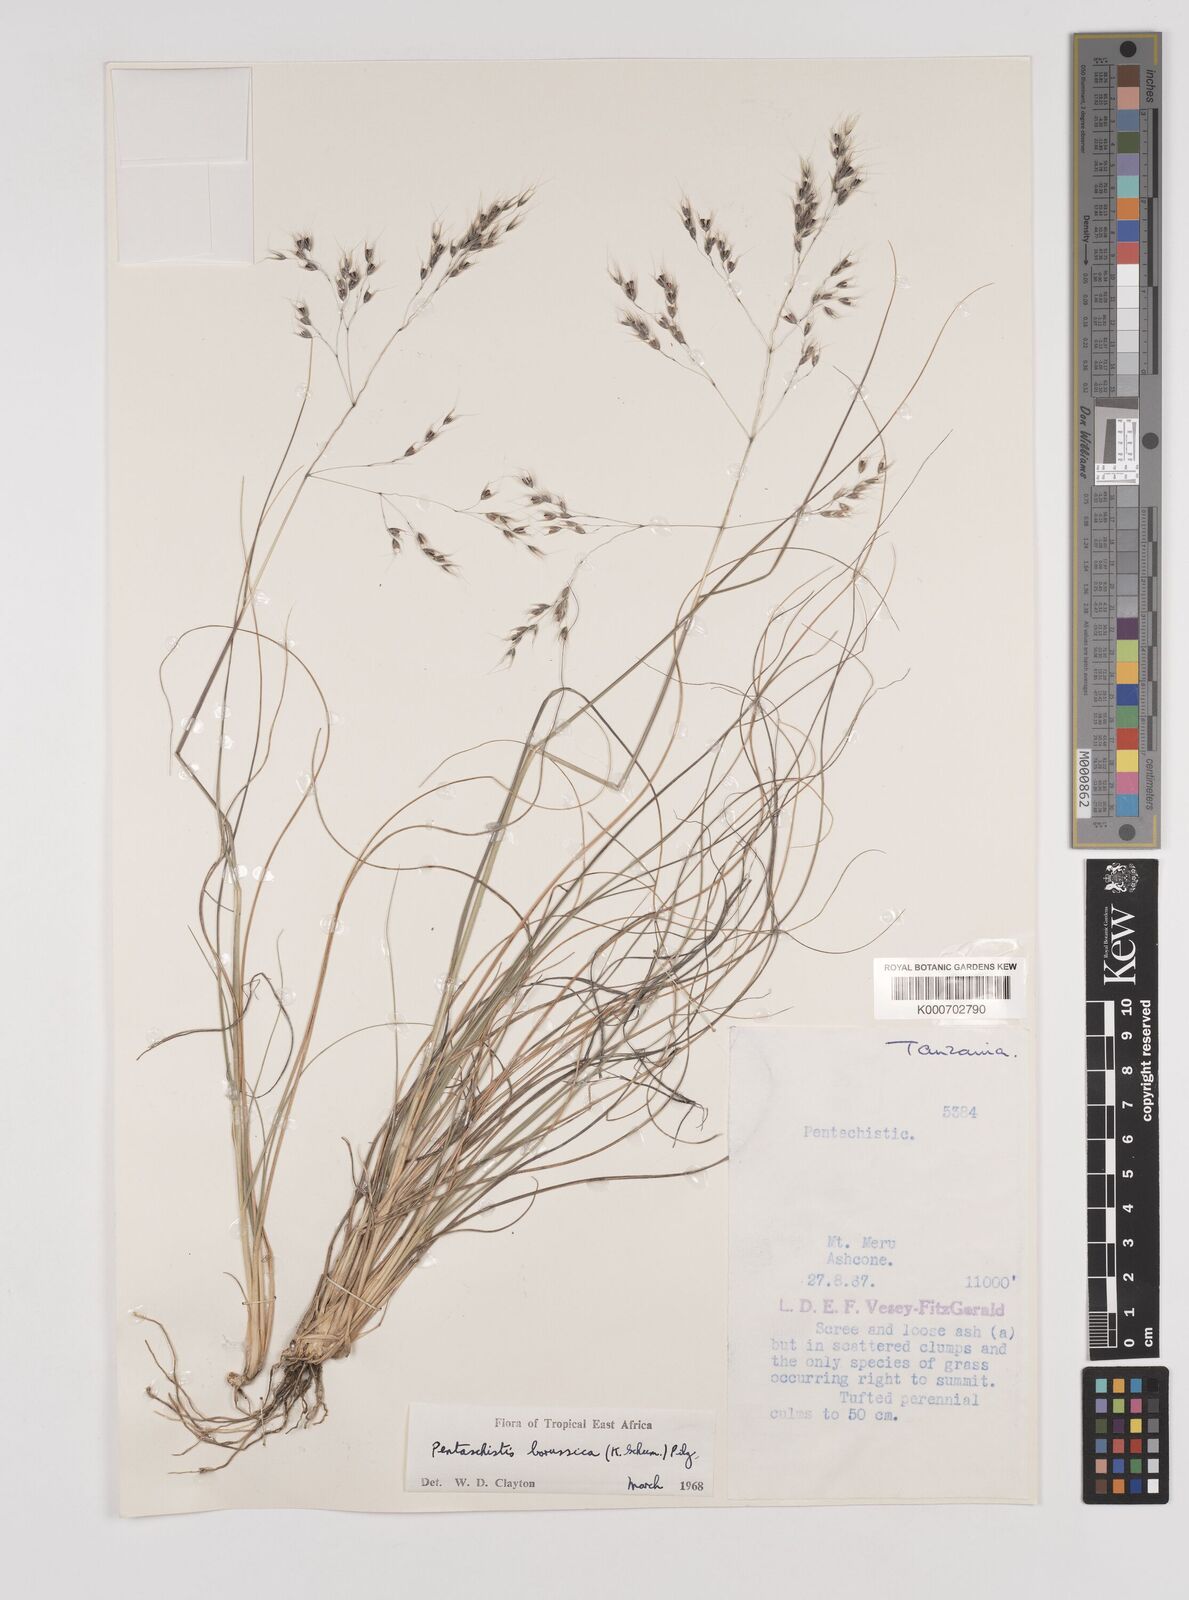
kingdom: Plantae
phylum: Tracheophyta
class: Liliopsida
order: Poales
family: Poaceae
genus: Pentameris
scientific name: Pentameris borussica
